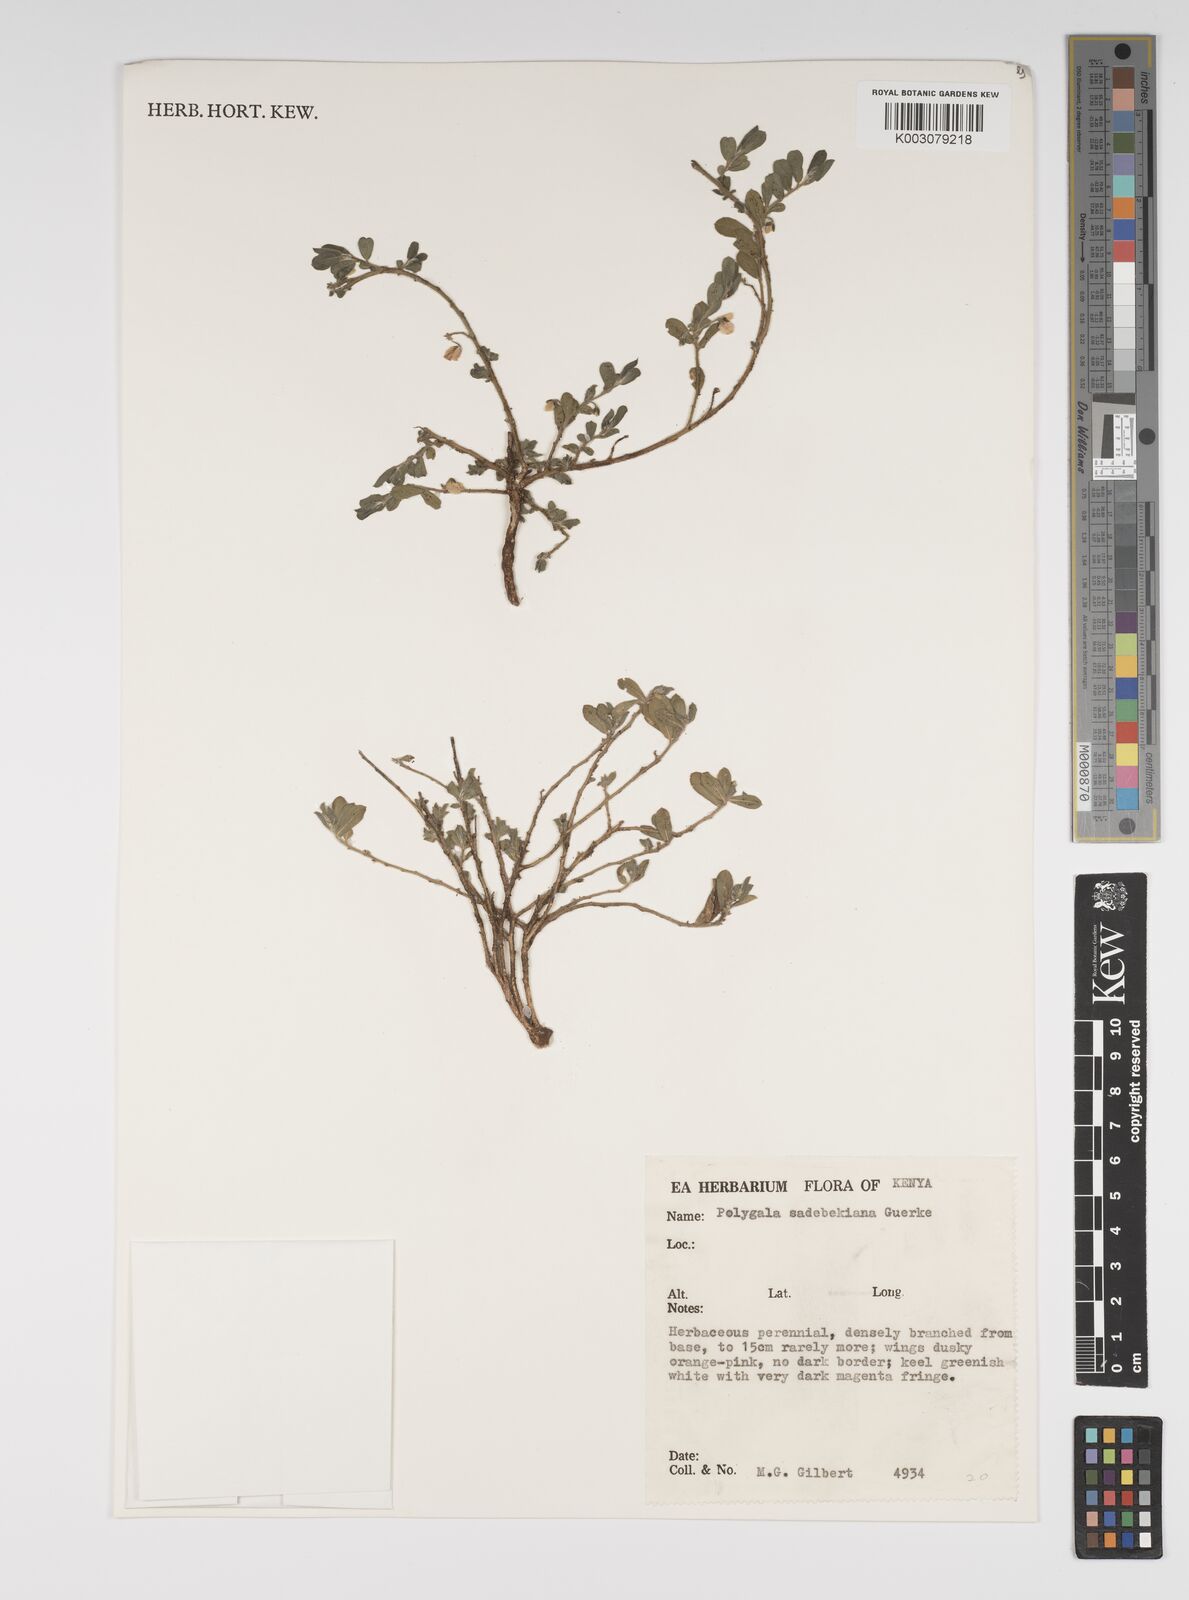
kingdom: Plantae
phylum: Tracheophyta
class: Magnoliopsida
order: Fabales
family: Polygalaceae
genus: Polygala
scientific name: Polygala sadebeckiana
